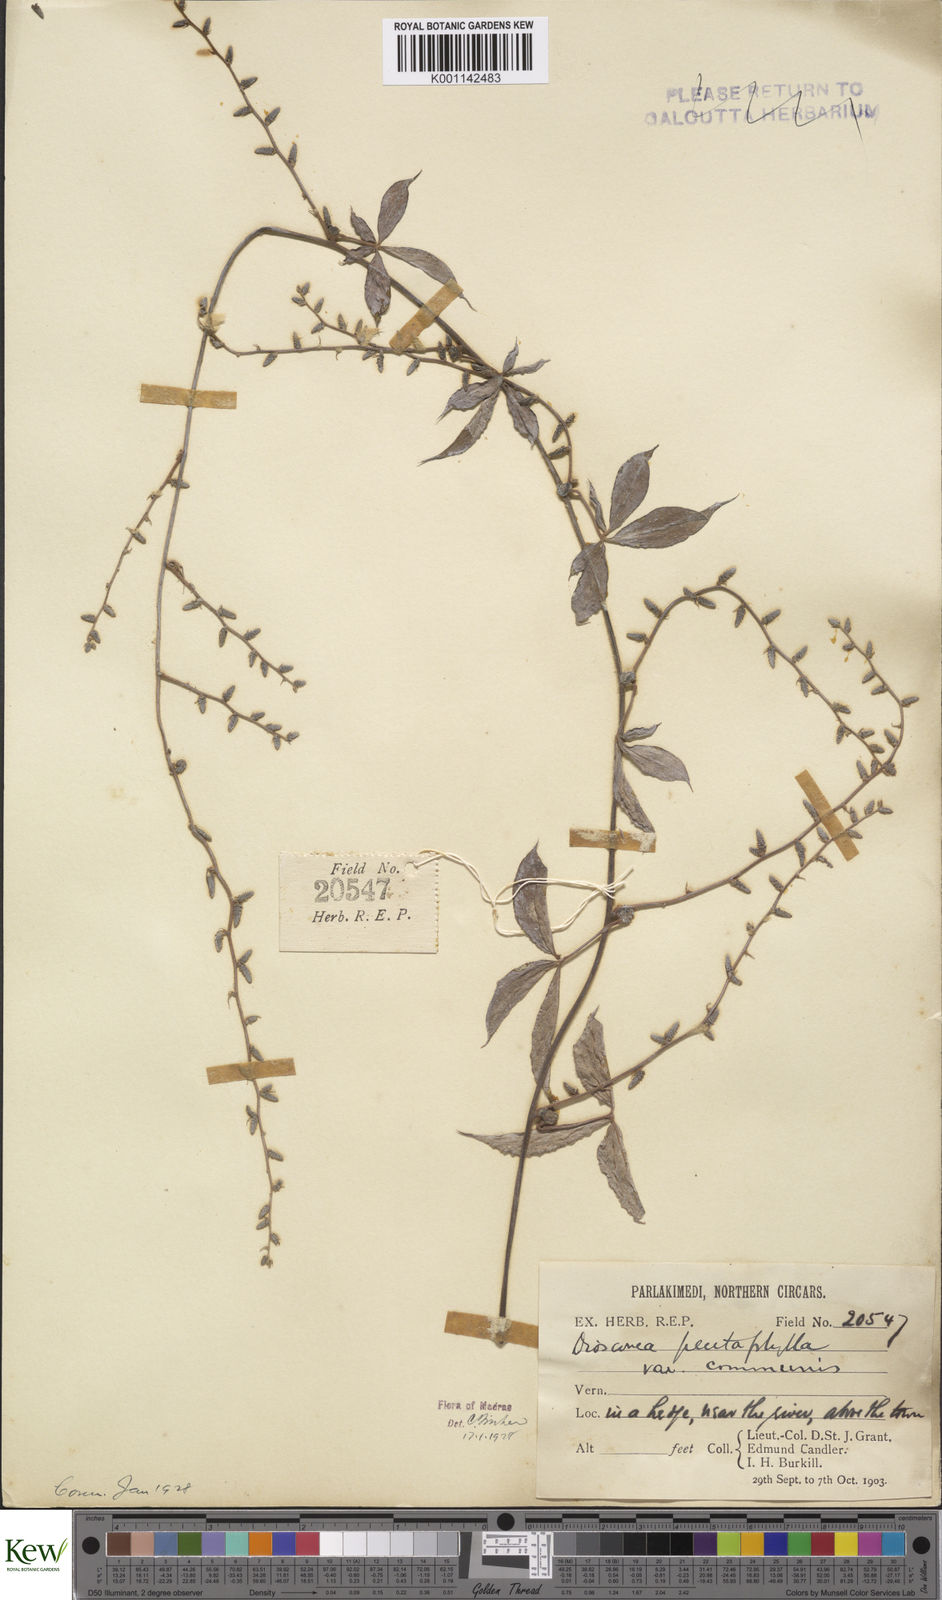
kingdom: Plantae
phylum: Tracheophyta
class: Liliopsida
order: Dioscoreales
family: Dioscoreaceae
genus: Dioscorea
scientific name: Dioscorea pentaphylla
